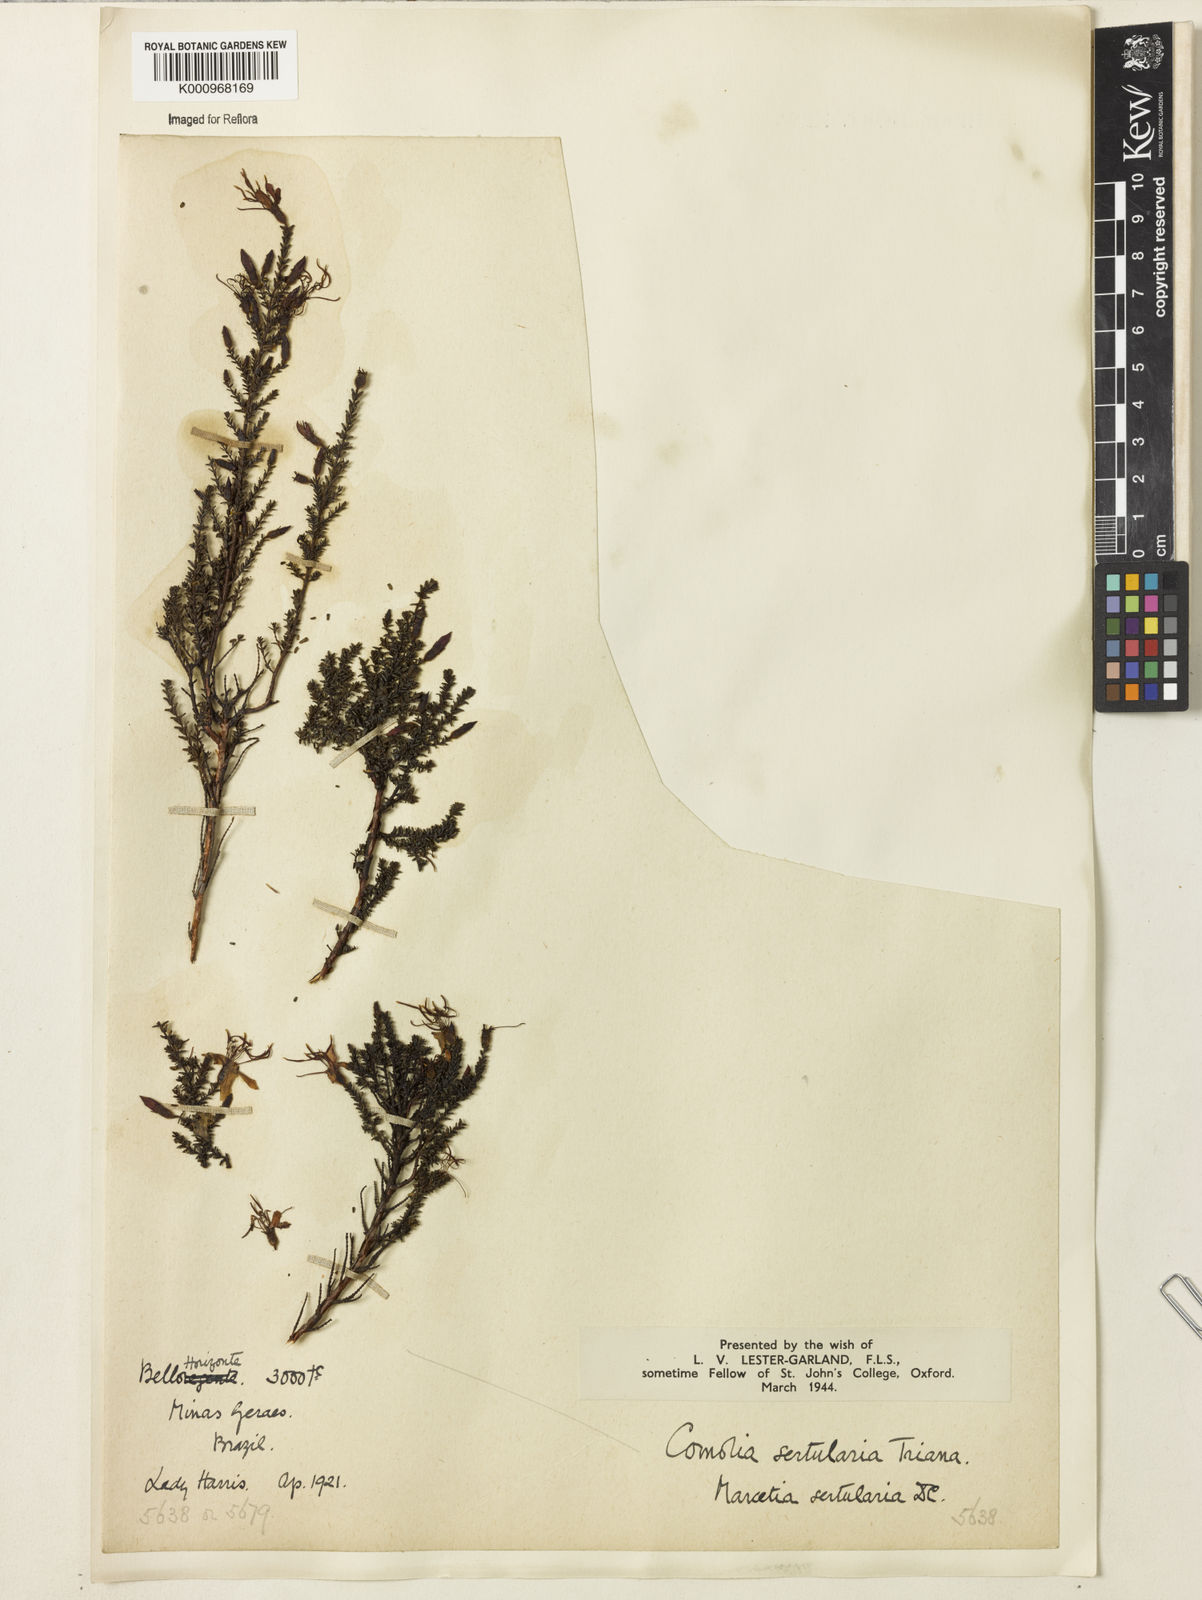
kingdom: Plantae
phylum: Tracheophyta
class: Magnoliopsida
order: Myrtales
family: Melastomataceae
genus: Fritzschia
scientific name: Fritzschia sertularia
